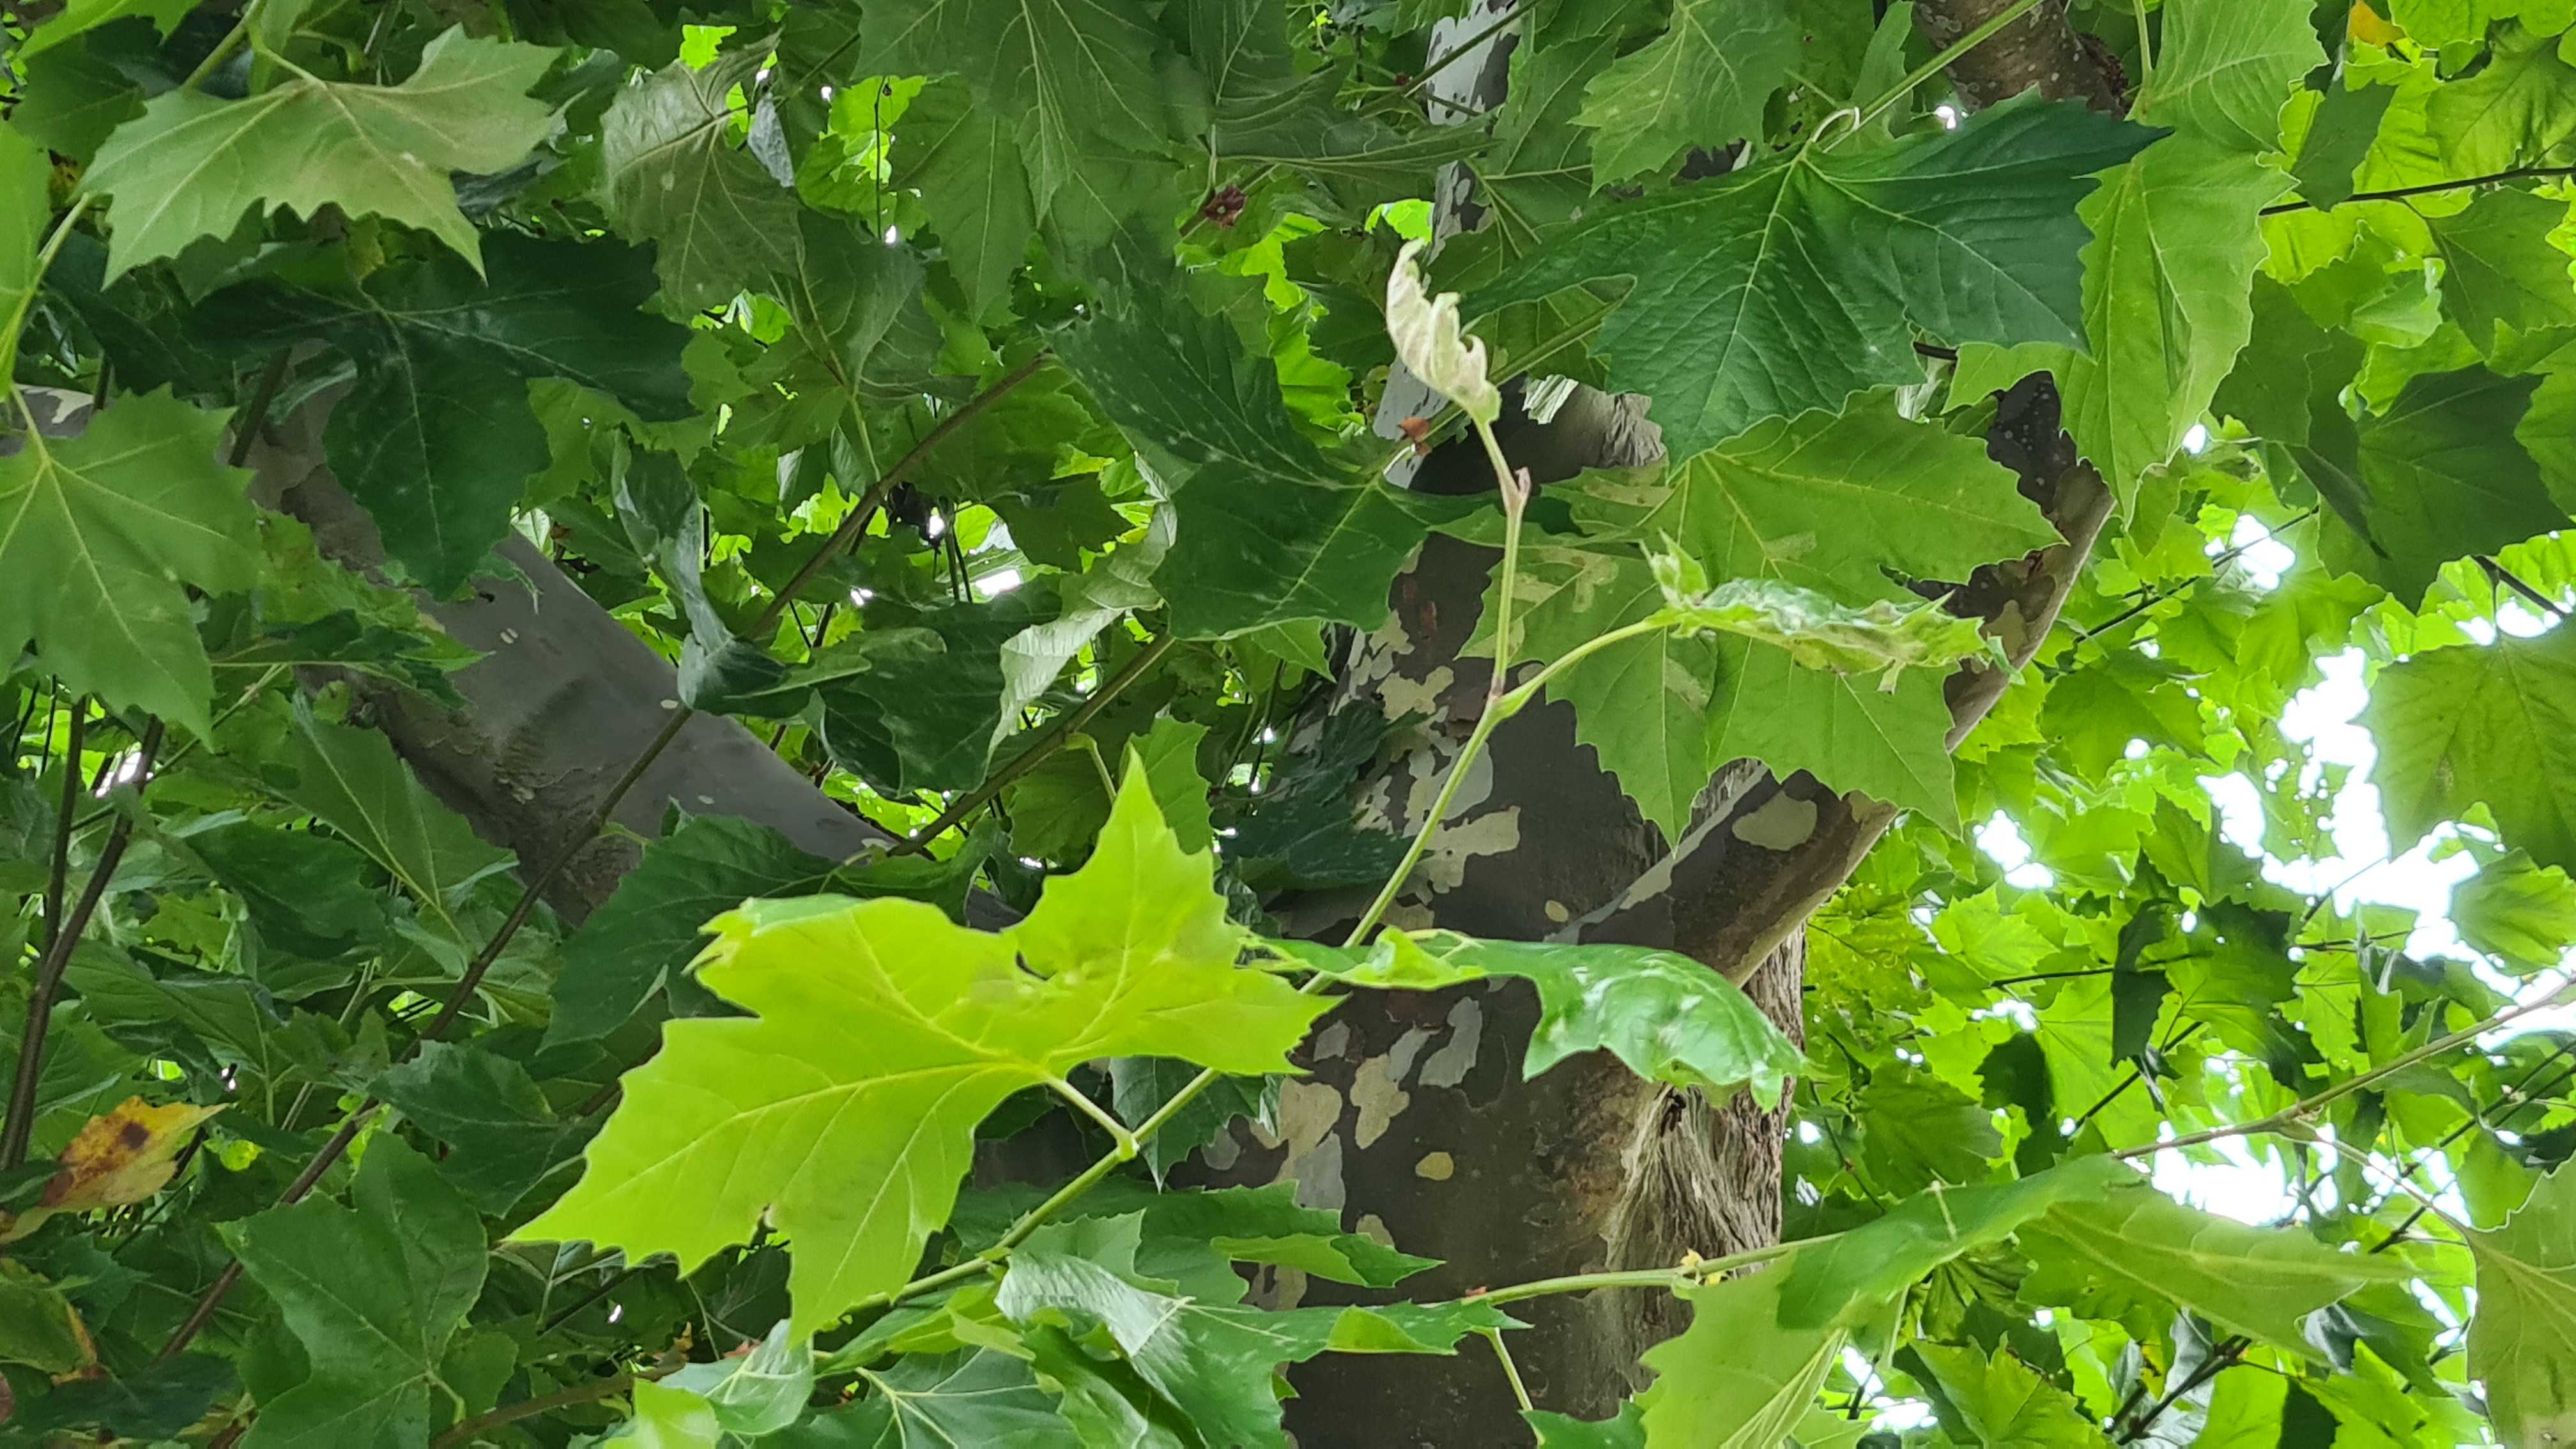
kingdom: Fungi
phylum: Ascomycota
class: Leotiomycetes
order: Helotiales
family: Erysiphaceae
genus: Erysiphe
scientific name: Erysiphe platani
